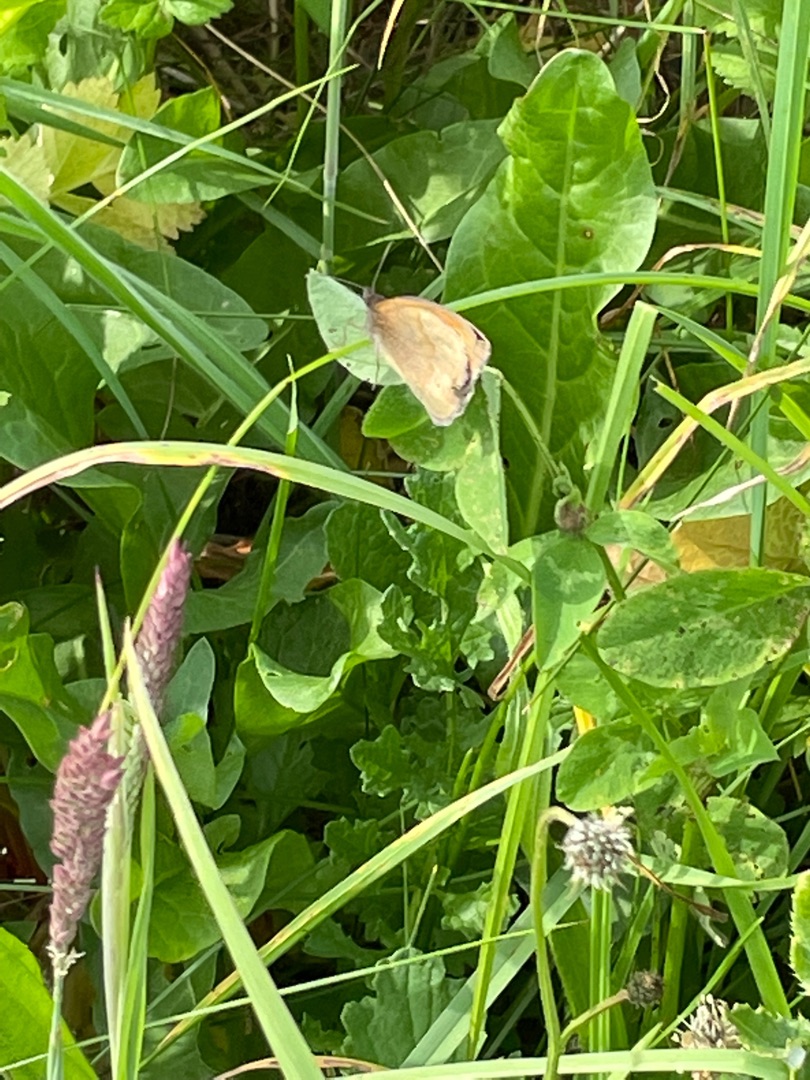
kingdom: Animalia
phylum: Arthropoda
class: Insecta
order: Lepidoptera
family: Nymphalidae
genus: Maniola
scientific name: Maniola jurtina
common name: Græsrandøje
